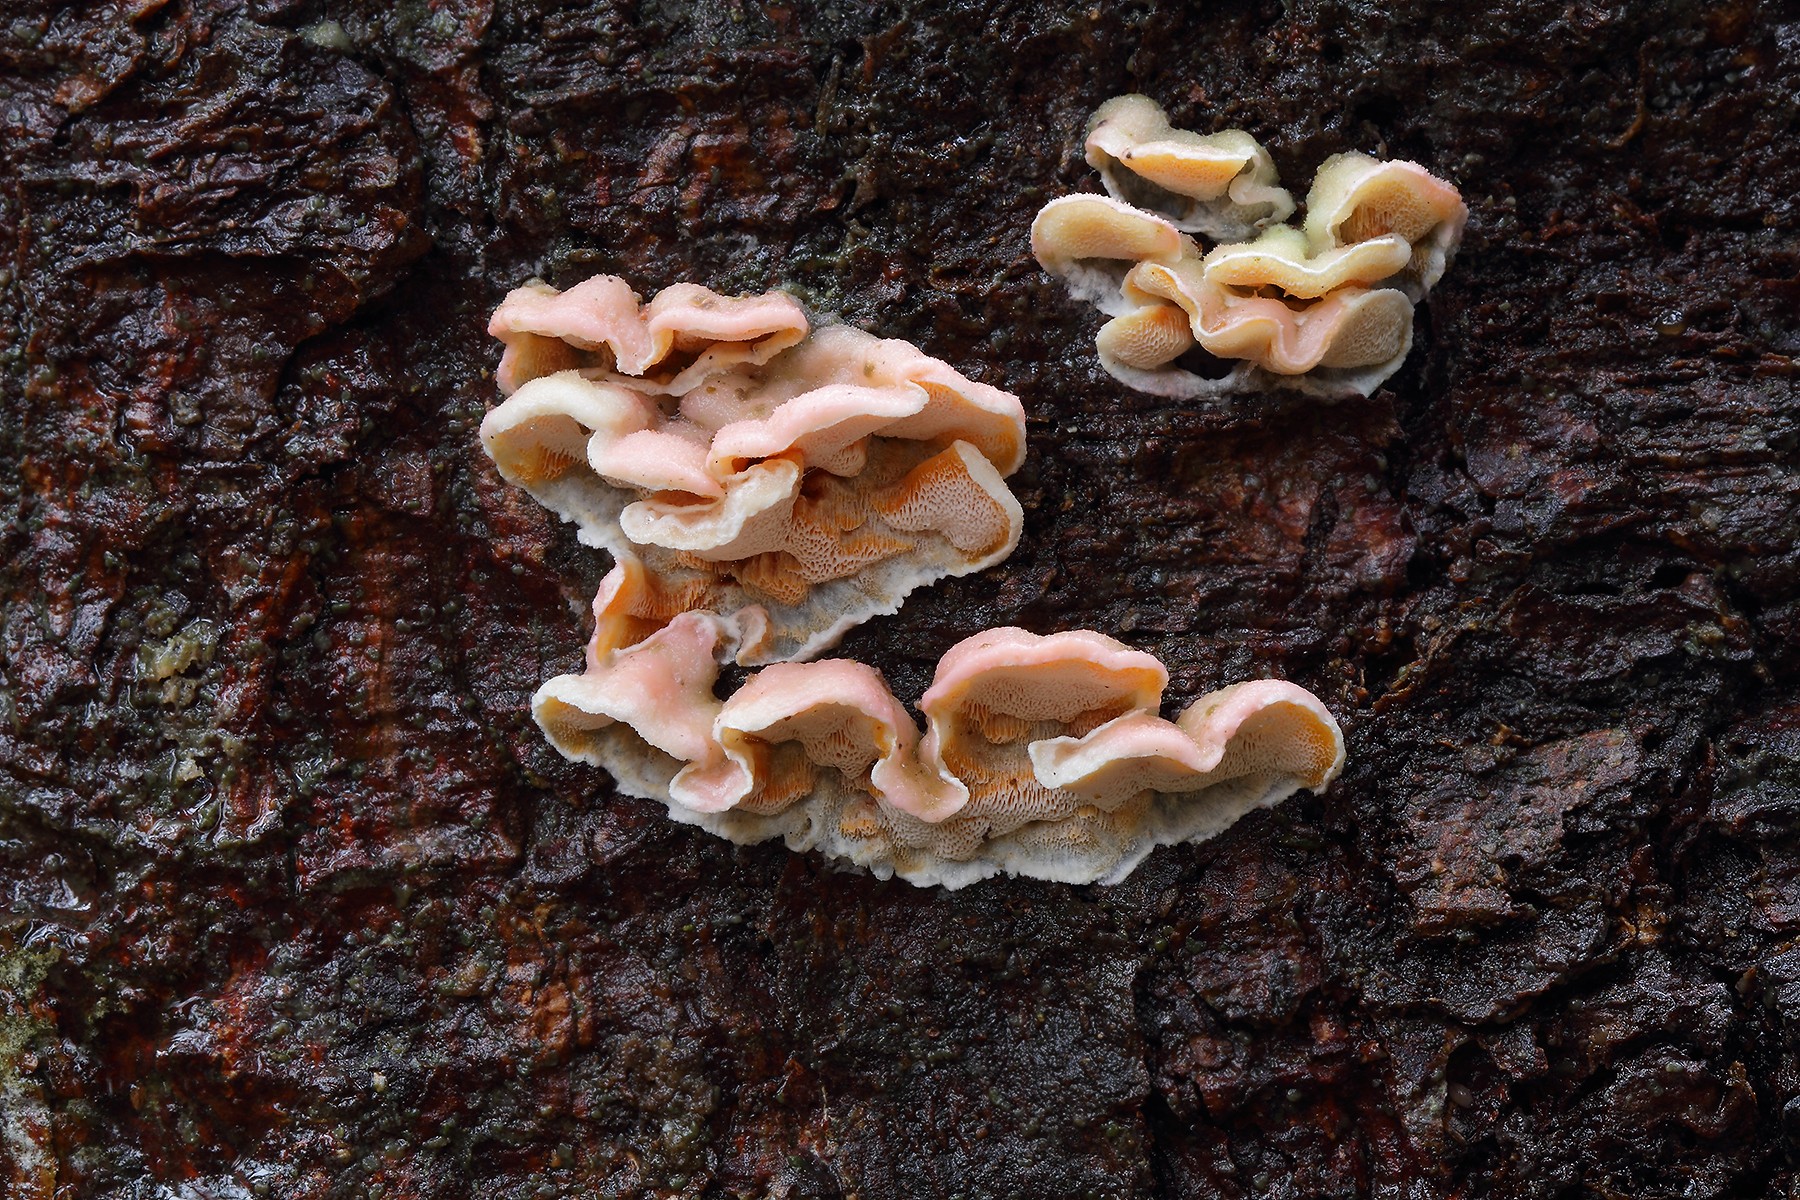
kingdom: Fungi
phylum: Basidiomycota
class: Agaricomycetes
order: Polyporales
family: Incrustoporiaceae
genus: Skeletocutis
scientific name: Skeletocutis amorpha
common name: orange krystalporesvamp
